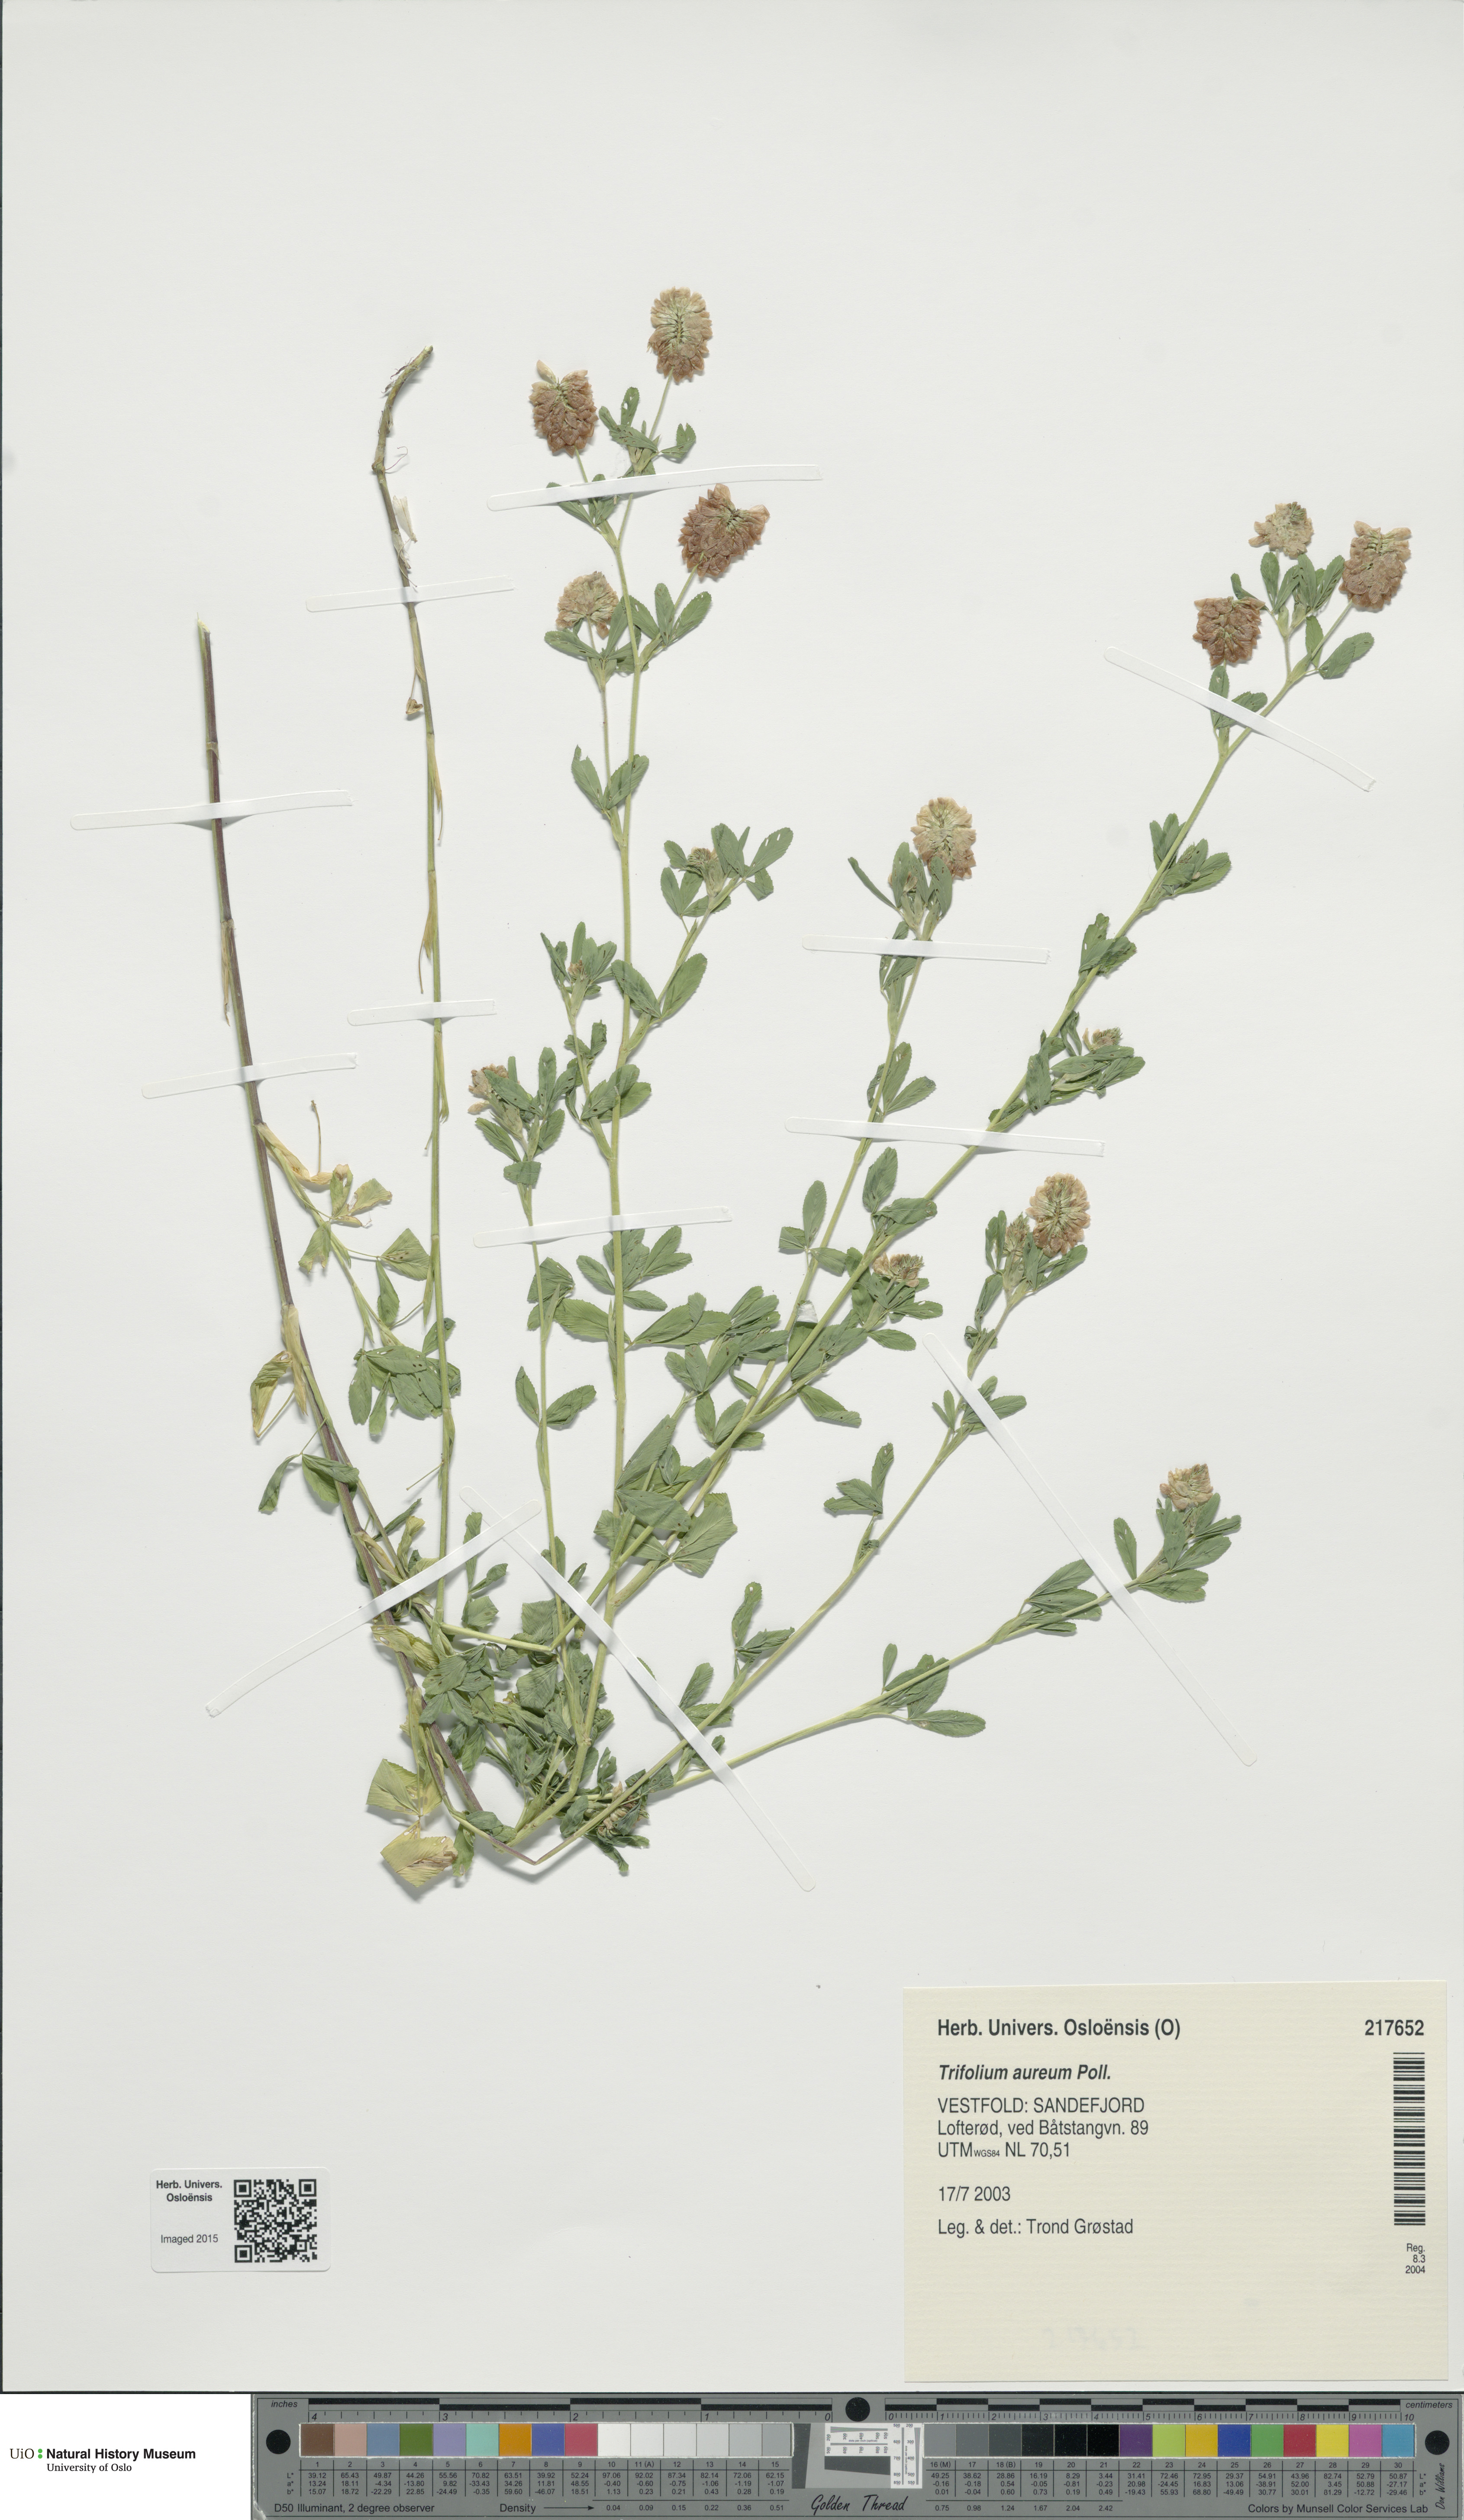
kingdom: Plantae
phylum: Tracheophyta
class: Magnoliopsida
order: Fabales
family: Fabaceae
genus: Trifolium
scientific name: Trifolium aureum
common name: Golden clover
